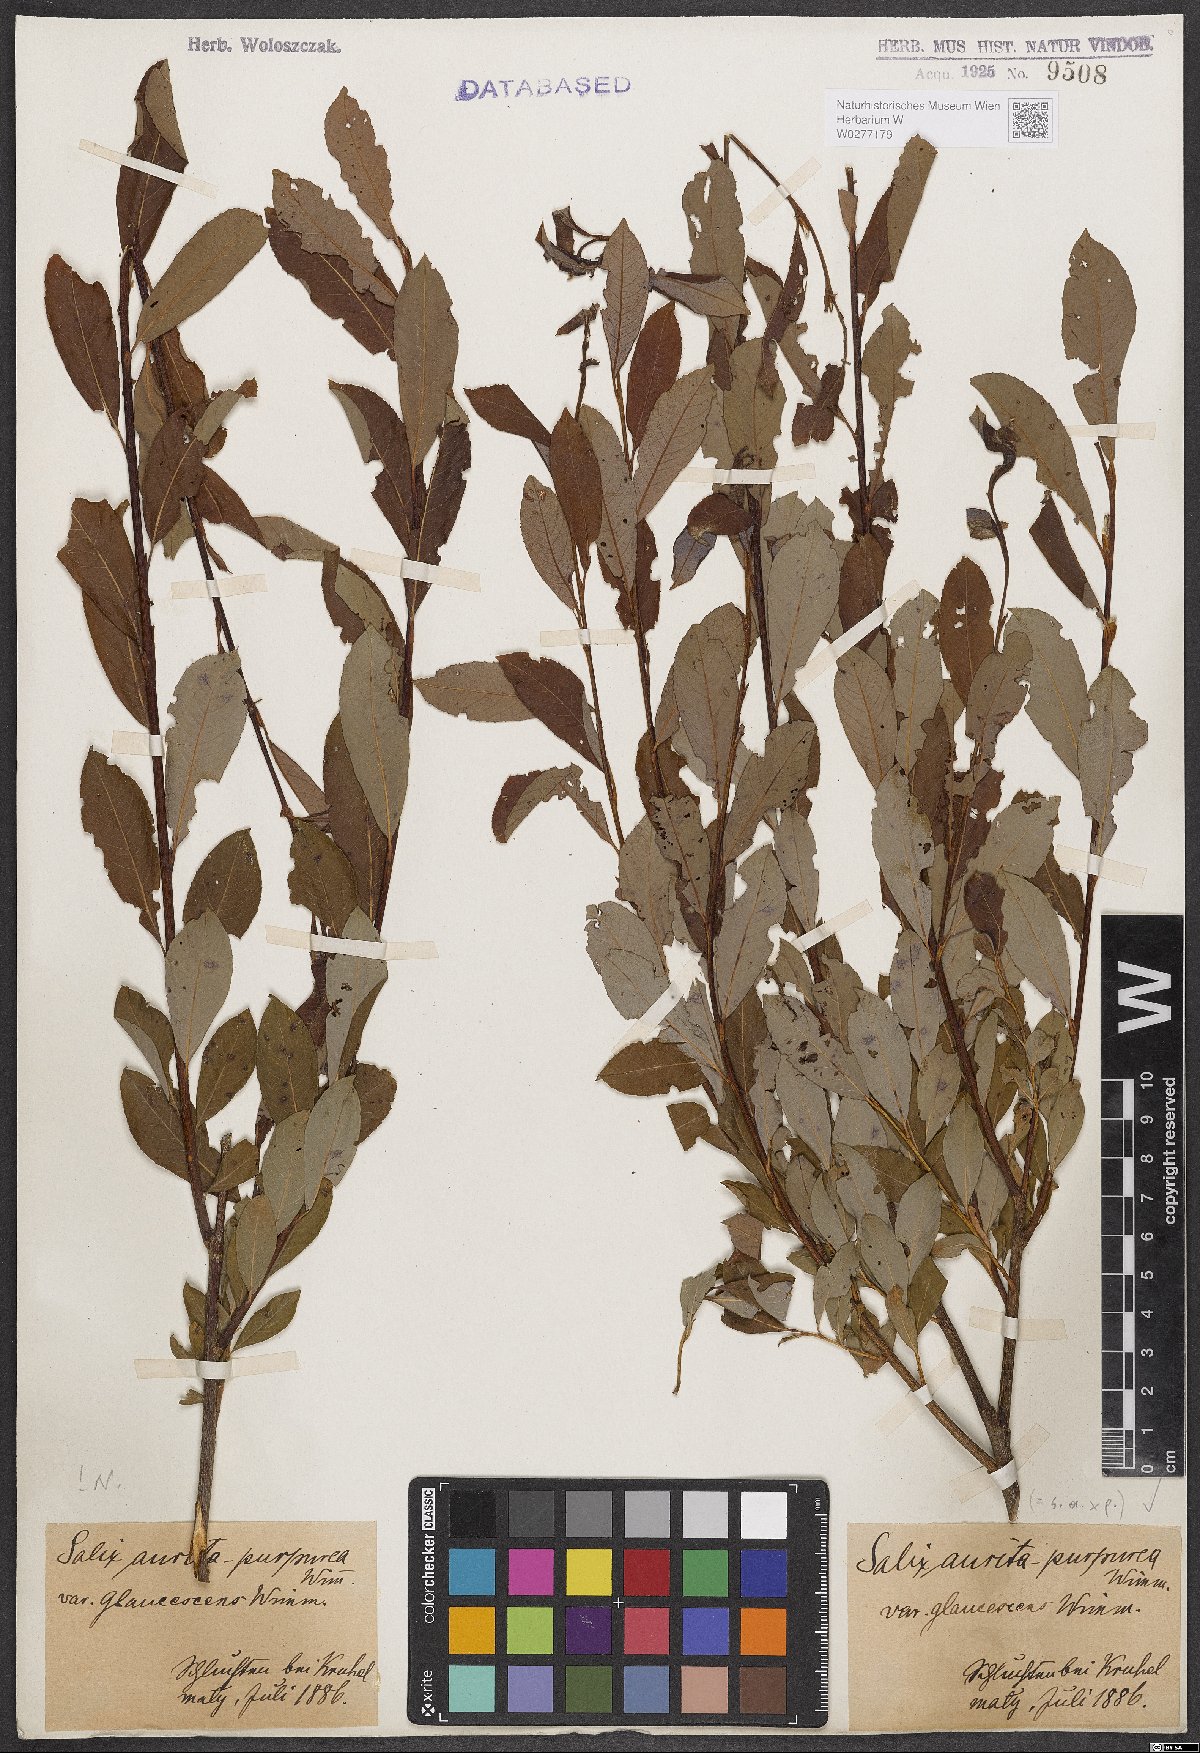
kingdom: Plantae
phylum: Tracheophyta
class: Magnoliopsida
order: Malpighiales
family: Salicaceae
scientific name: Salicaceae
